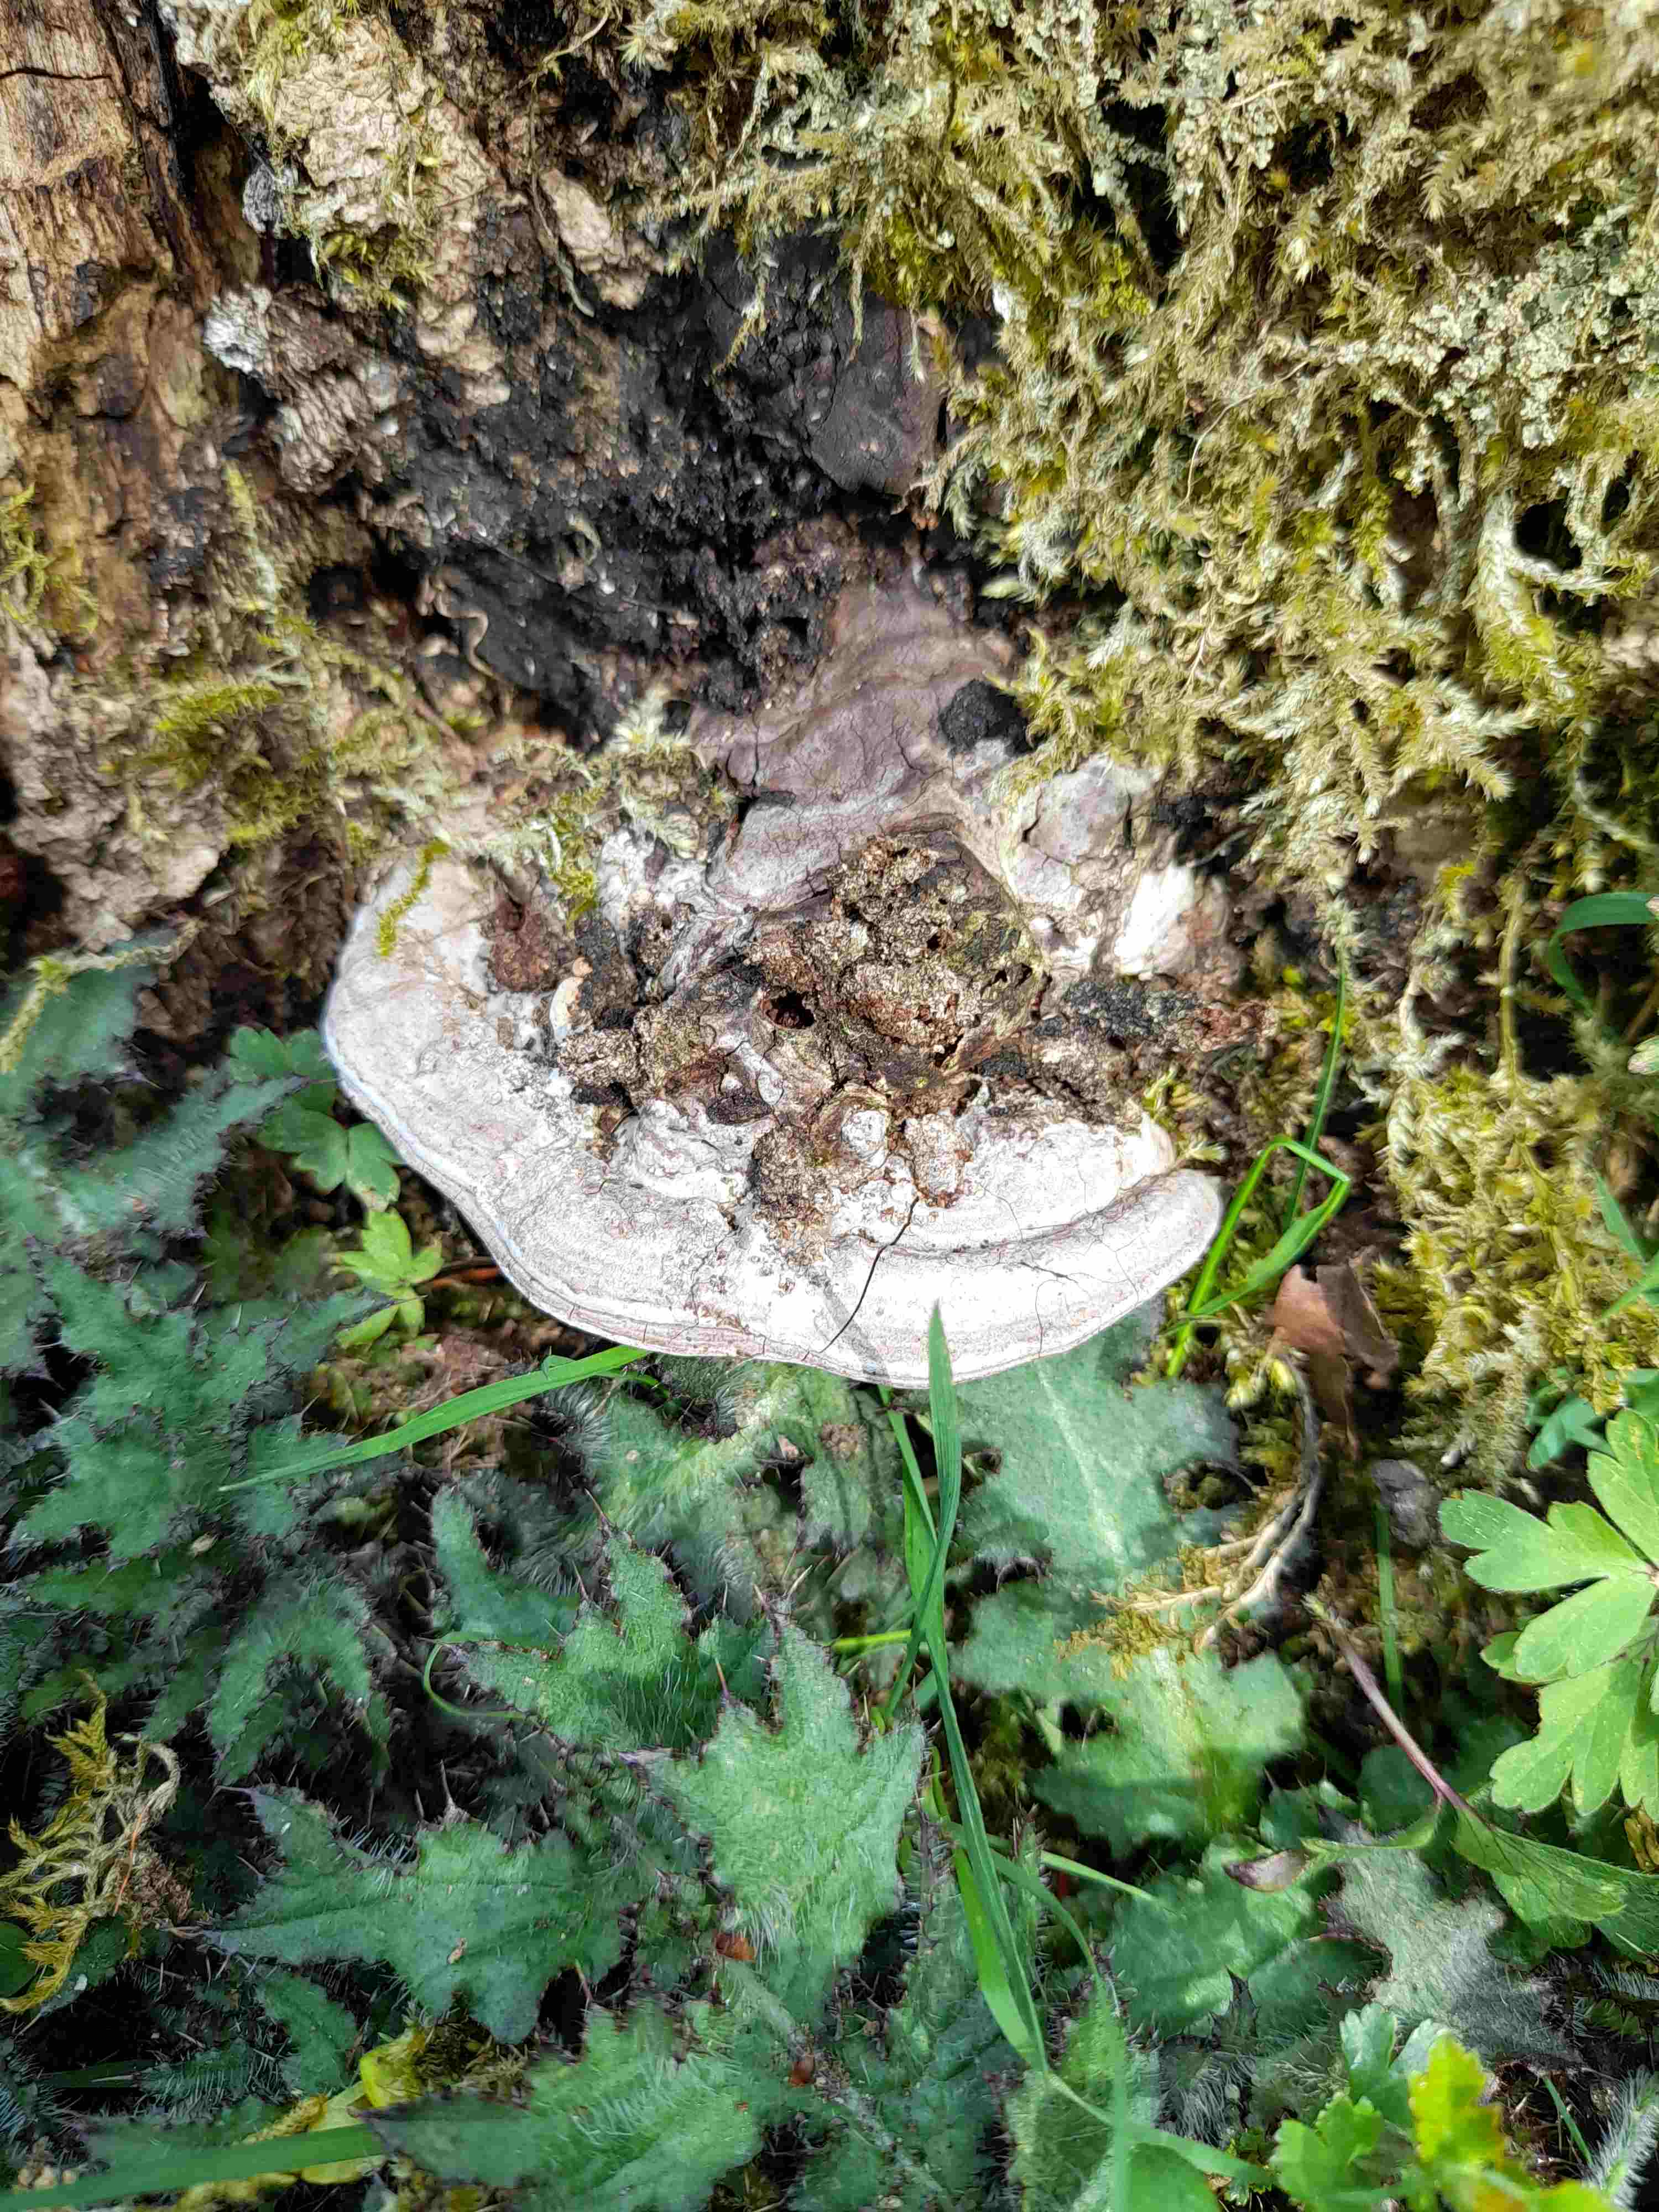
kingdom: Fungi
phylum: Basidiomycota
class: Agaricomycetes
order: Polyporales
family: Polyporaceae
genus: Ganoderma
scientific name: Ganoderma applanatum
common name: flad lakporesvamp
